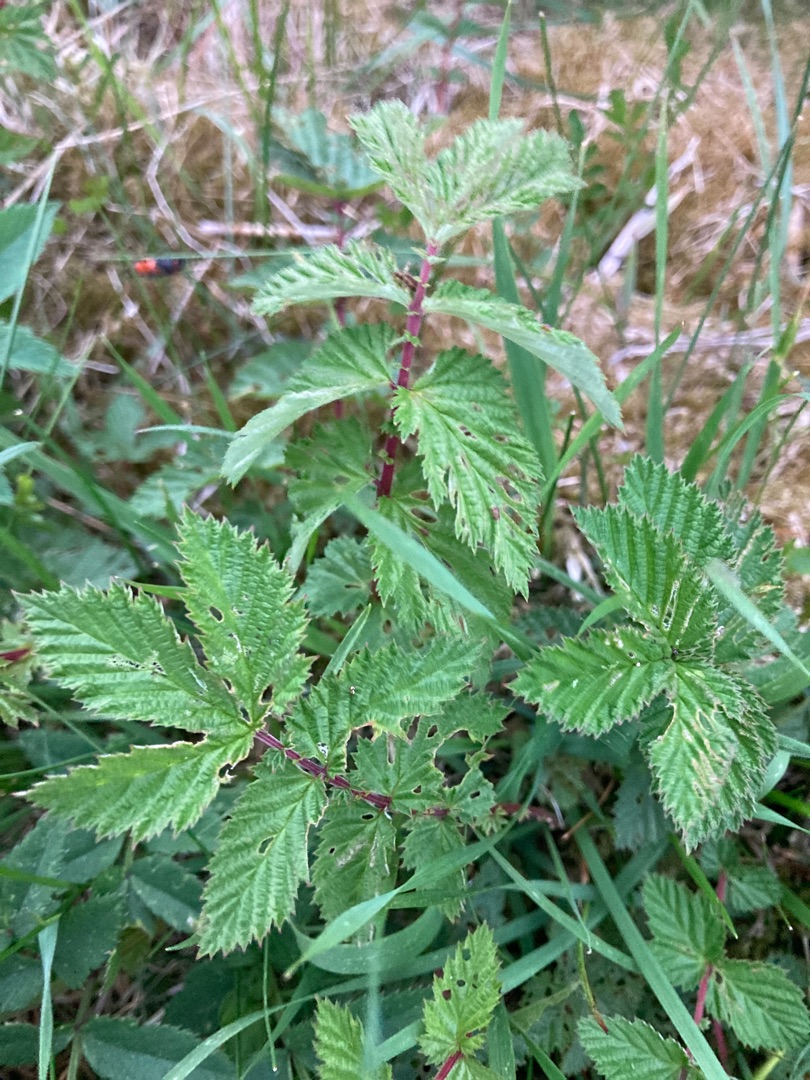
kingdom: Plantae
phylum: Tracheophyta
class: Magnoliopsida
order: Rosales
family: Rosaceae
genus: Filipendula
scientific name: Filipendula ulmaria
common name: Almindelig mjødurt
